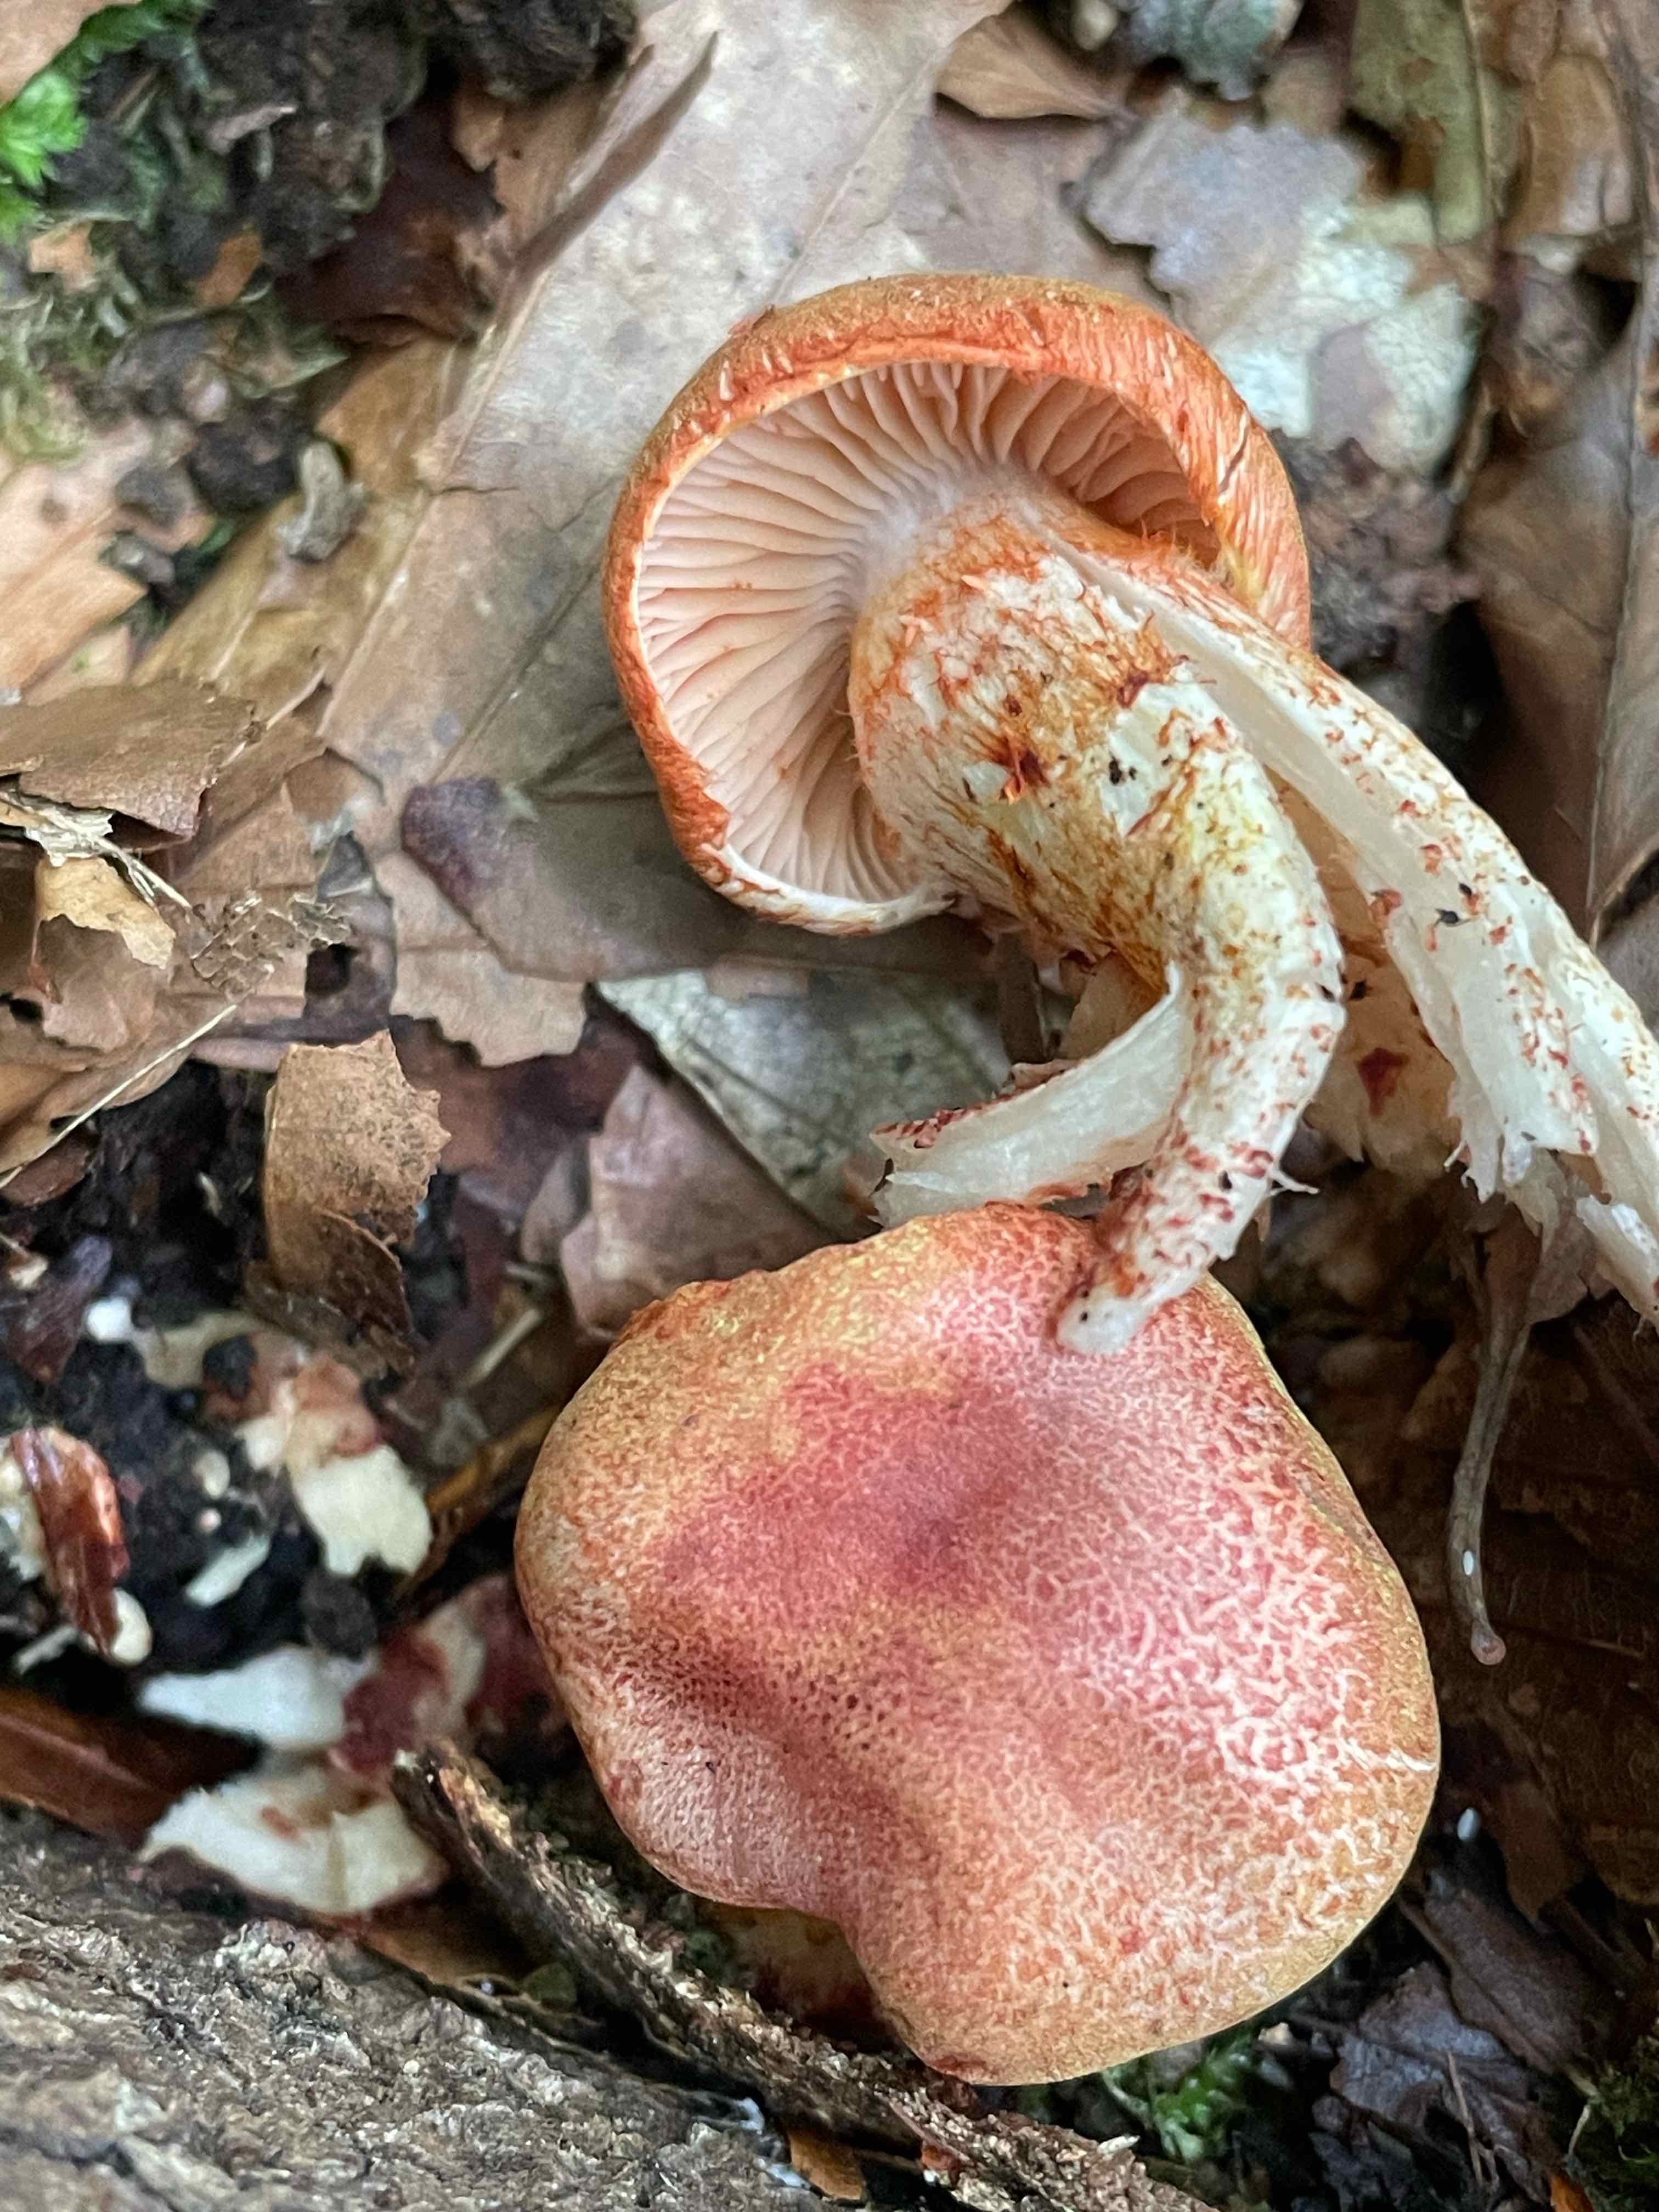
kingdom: Fungi
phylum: Basidiomycota
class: Agaricomycetes
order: Agaricales
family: Cortinariaceae
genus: Cortinarius
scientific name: Cortinarius bolaris
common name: cinnoberskællet slørhat
